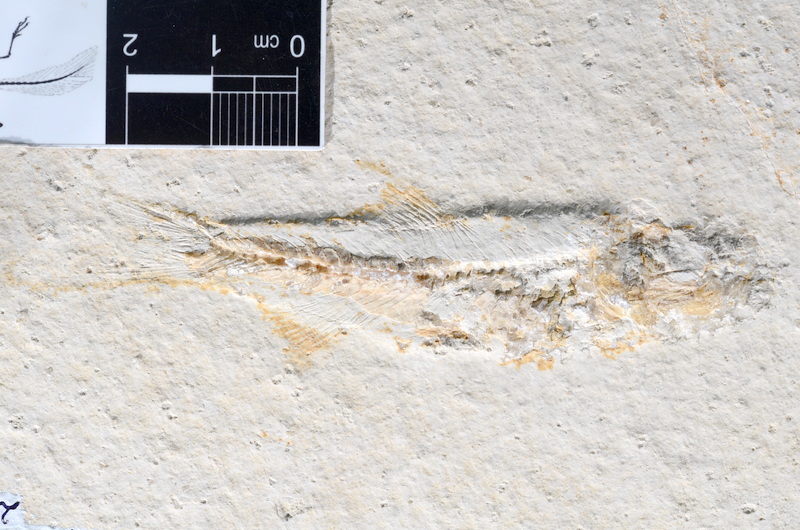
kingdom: Animalia
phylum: Chordata
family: Ascalaboidae
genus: Ascalabos
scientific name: Ascalabos voithii
